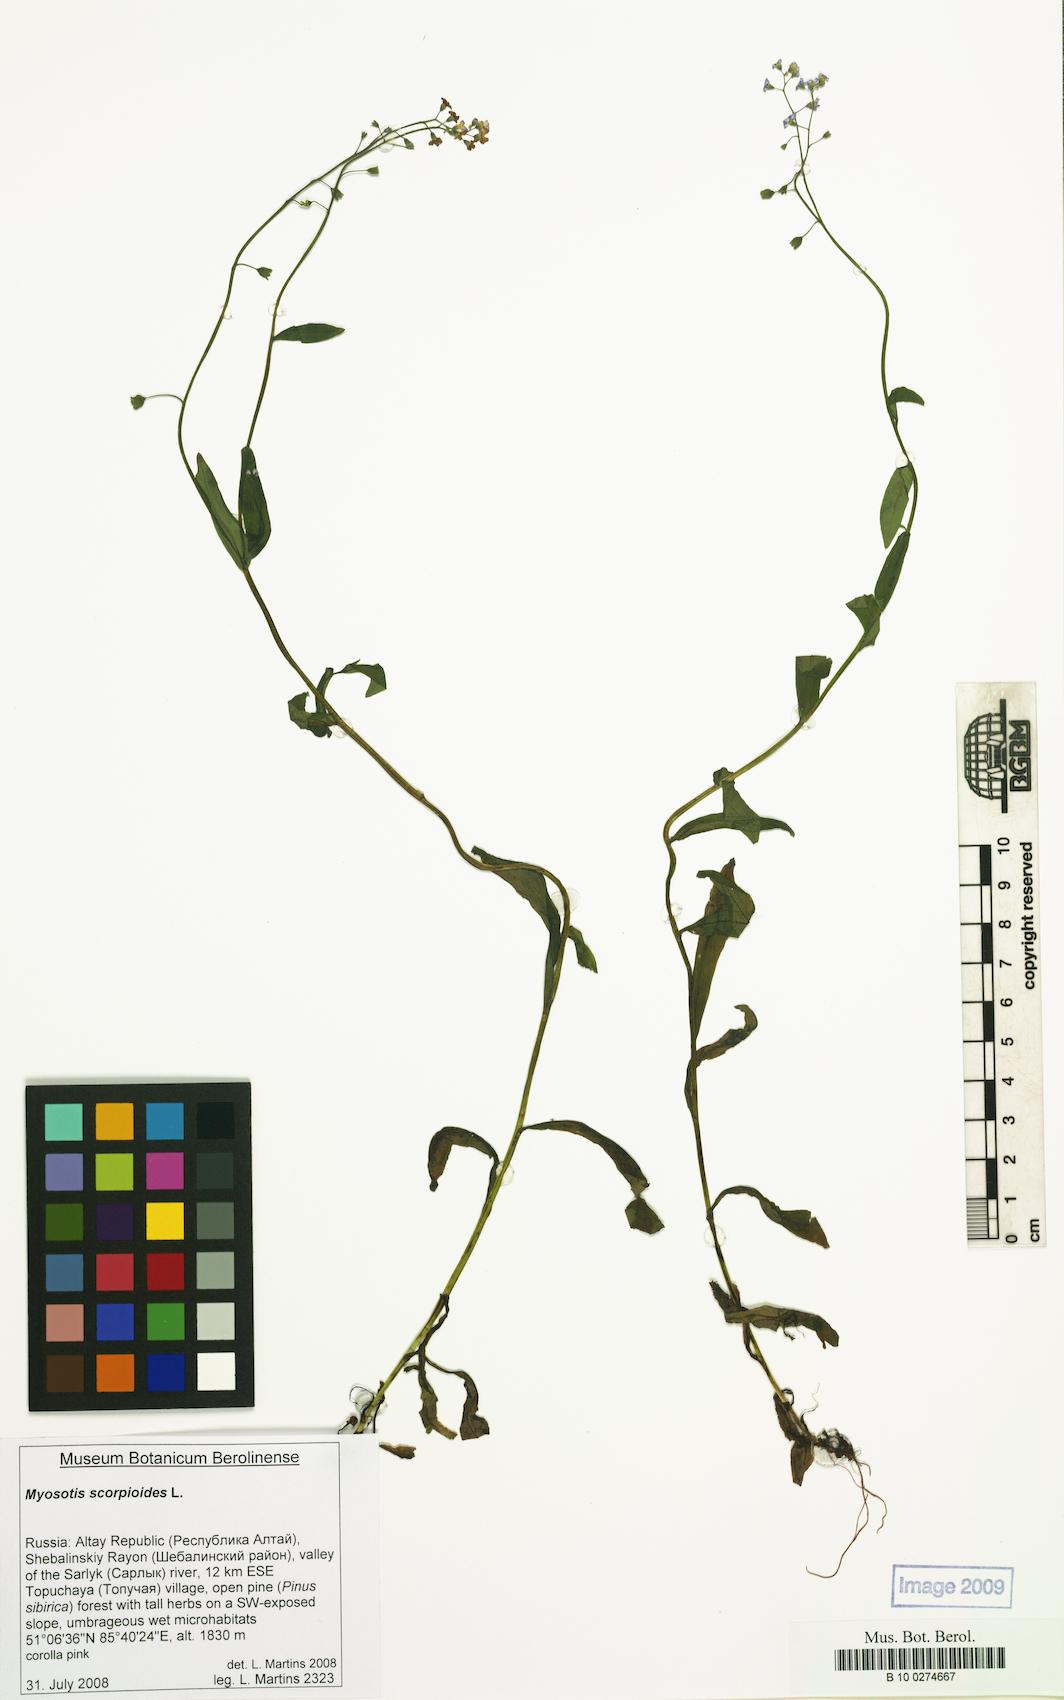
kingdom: Plantae
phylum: Tracheophyta
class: Magnoliopsida
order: Boraginales
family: Boraginaceae
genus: Myosotis
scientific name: Myosotis scorpioides
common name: Water forget-me-not
